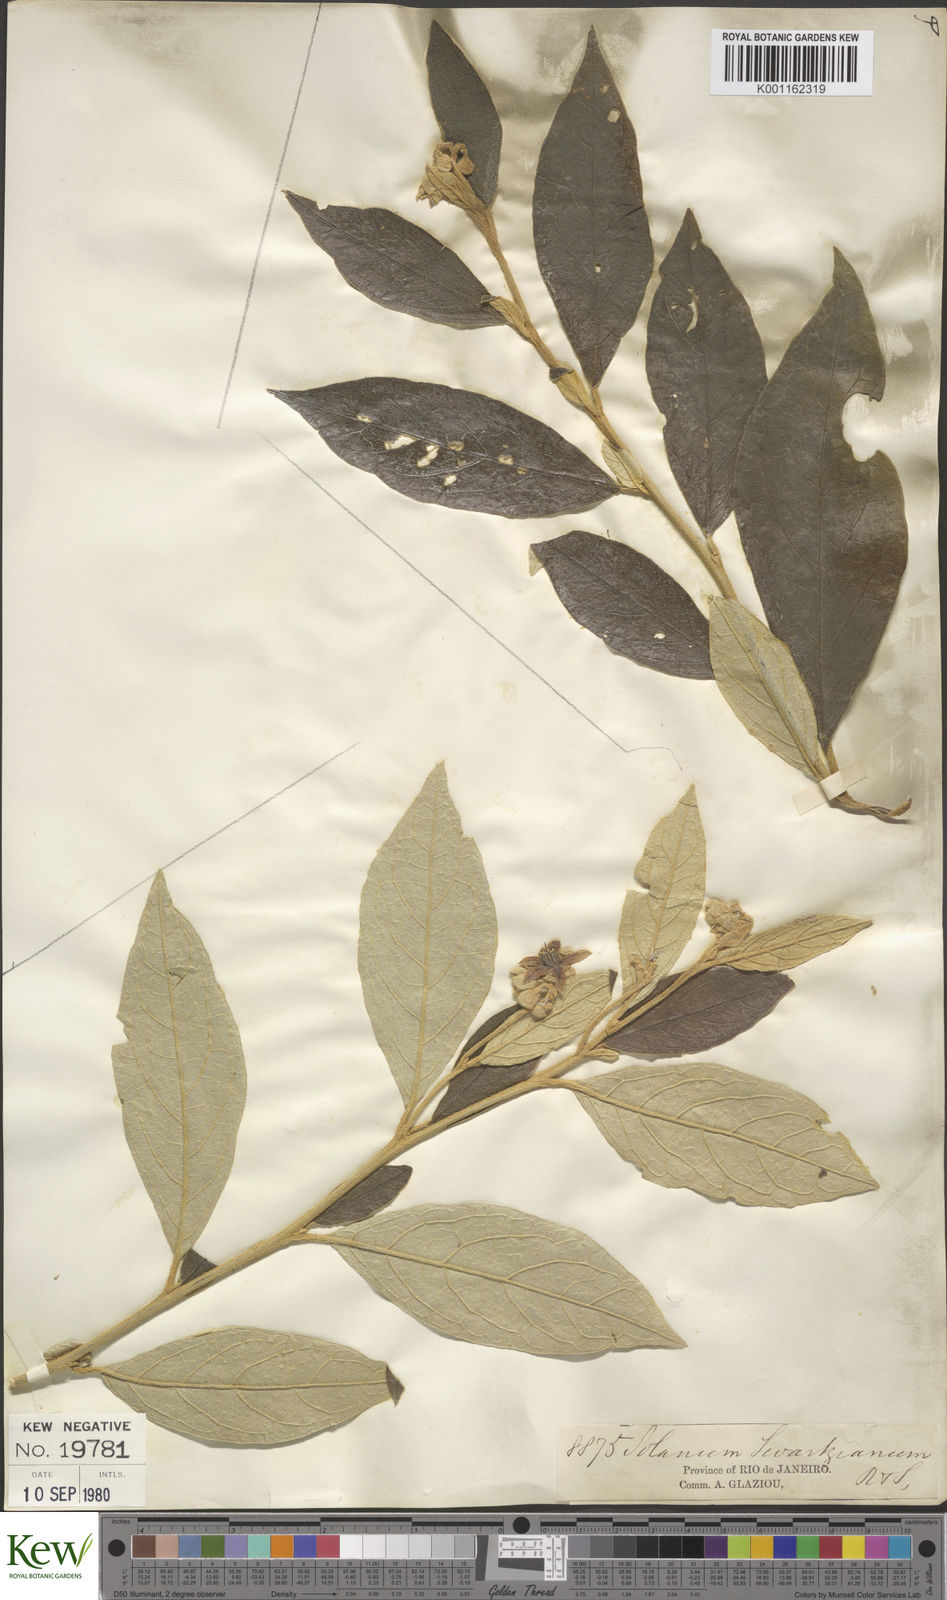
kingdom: Plantae
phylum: Tracheophyta
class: Magnoliopsida
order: Solanales
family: Solanaceae
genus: Solanum
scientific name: Solanum swartzianum
